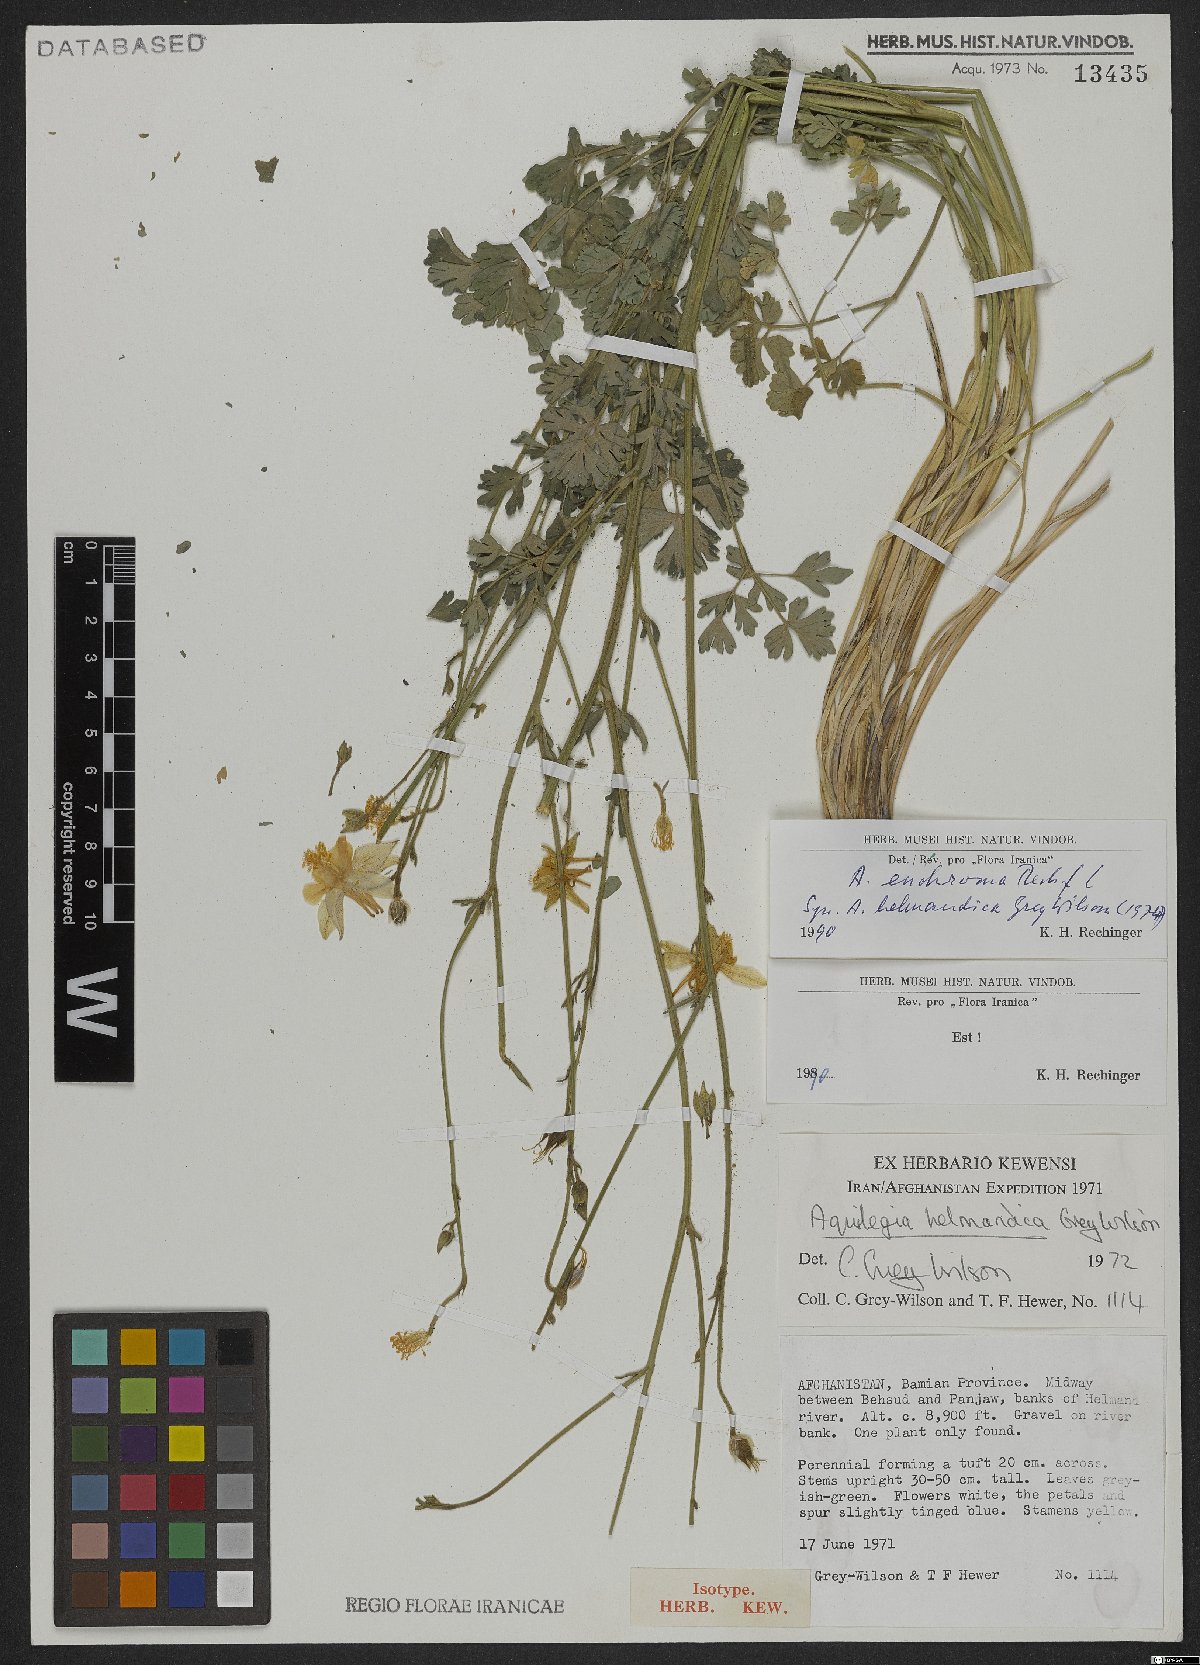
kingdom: Plantae
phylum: Tracheophyta
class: Magnoliopsida
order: Ranunculales
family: Ranunculaceae
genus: Aquilegia
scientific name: Aquilegia moorcroftiana
